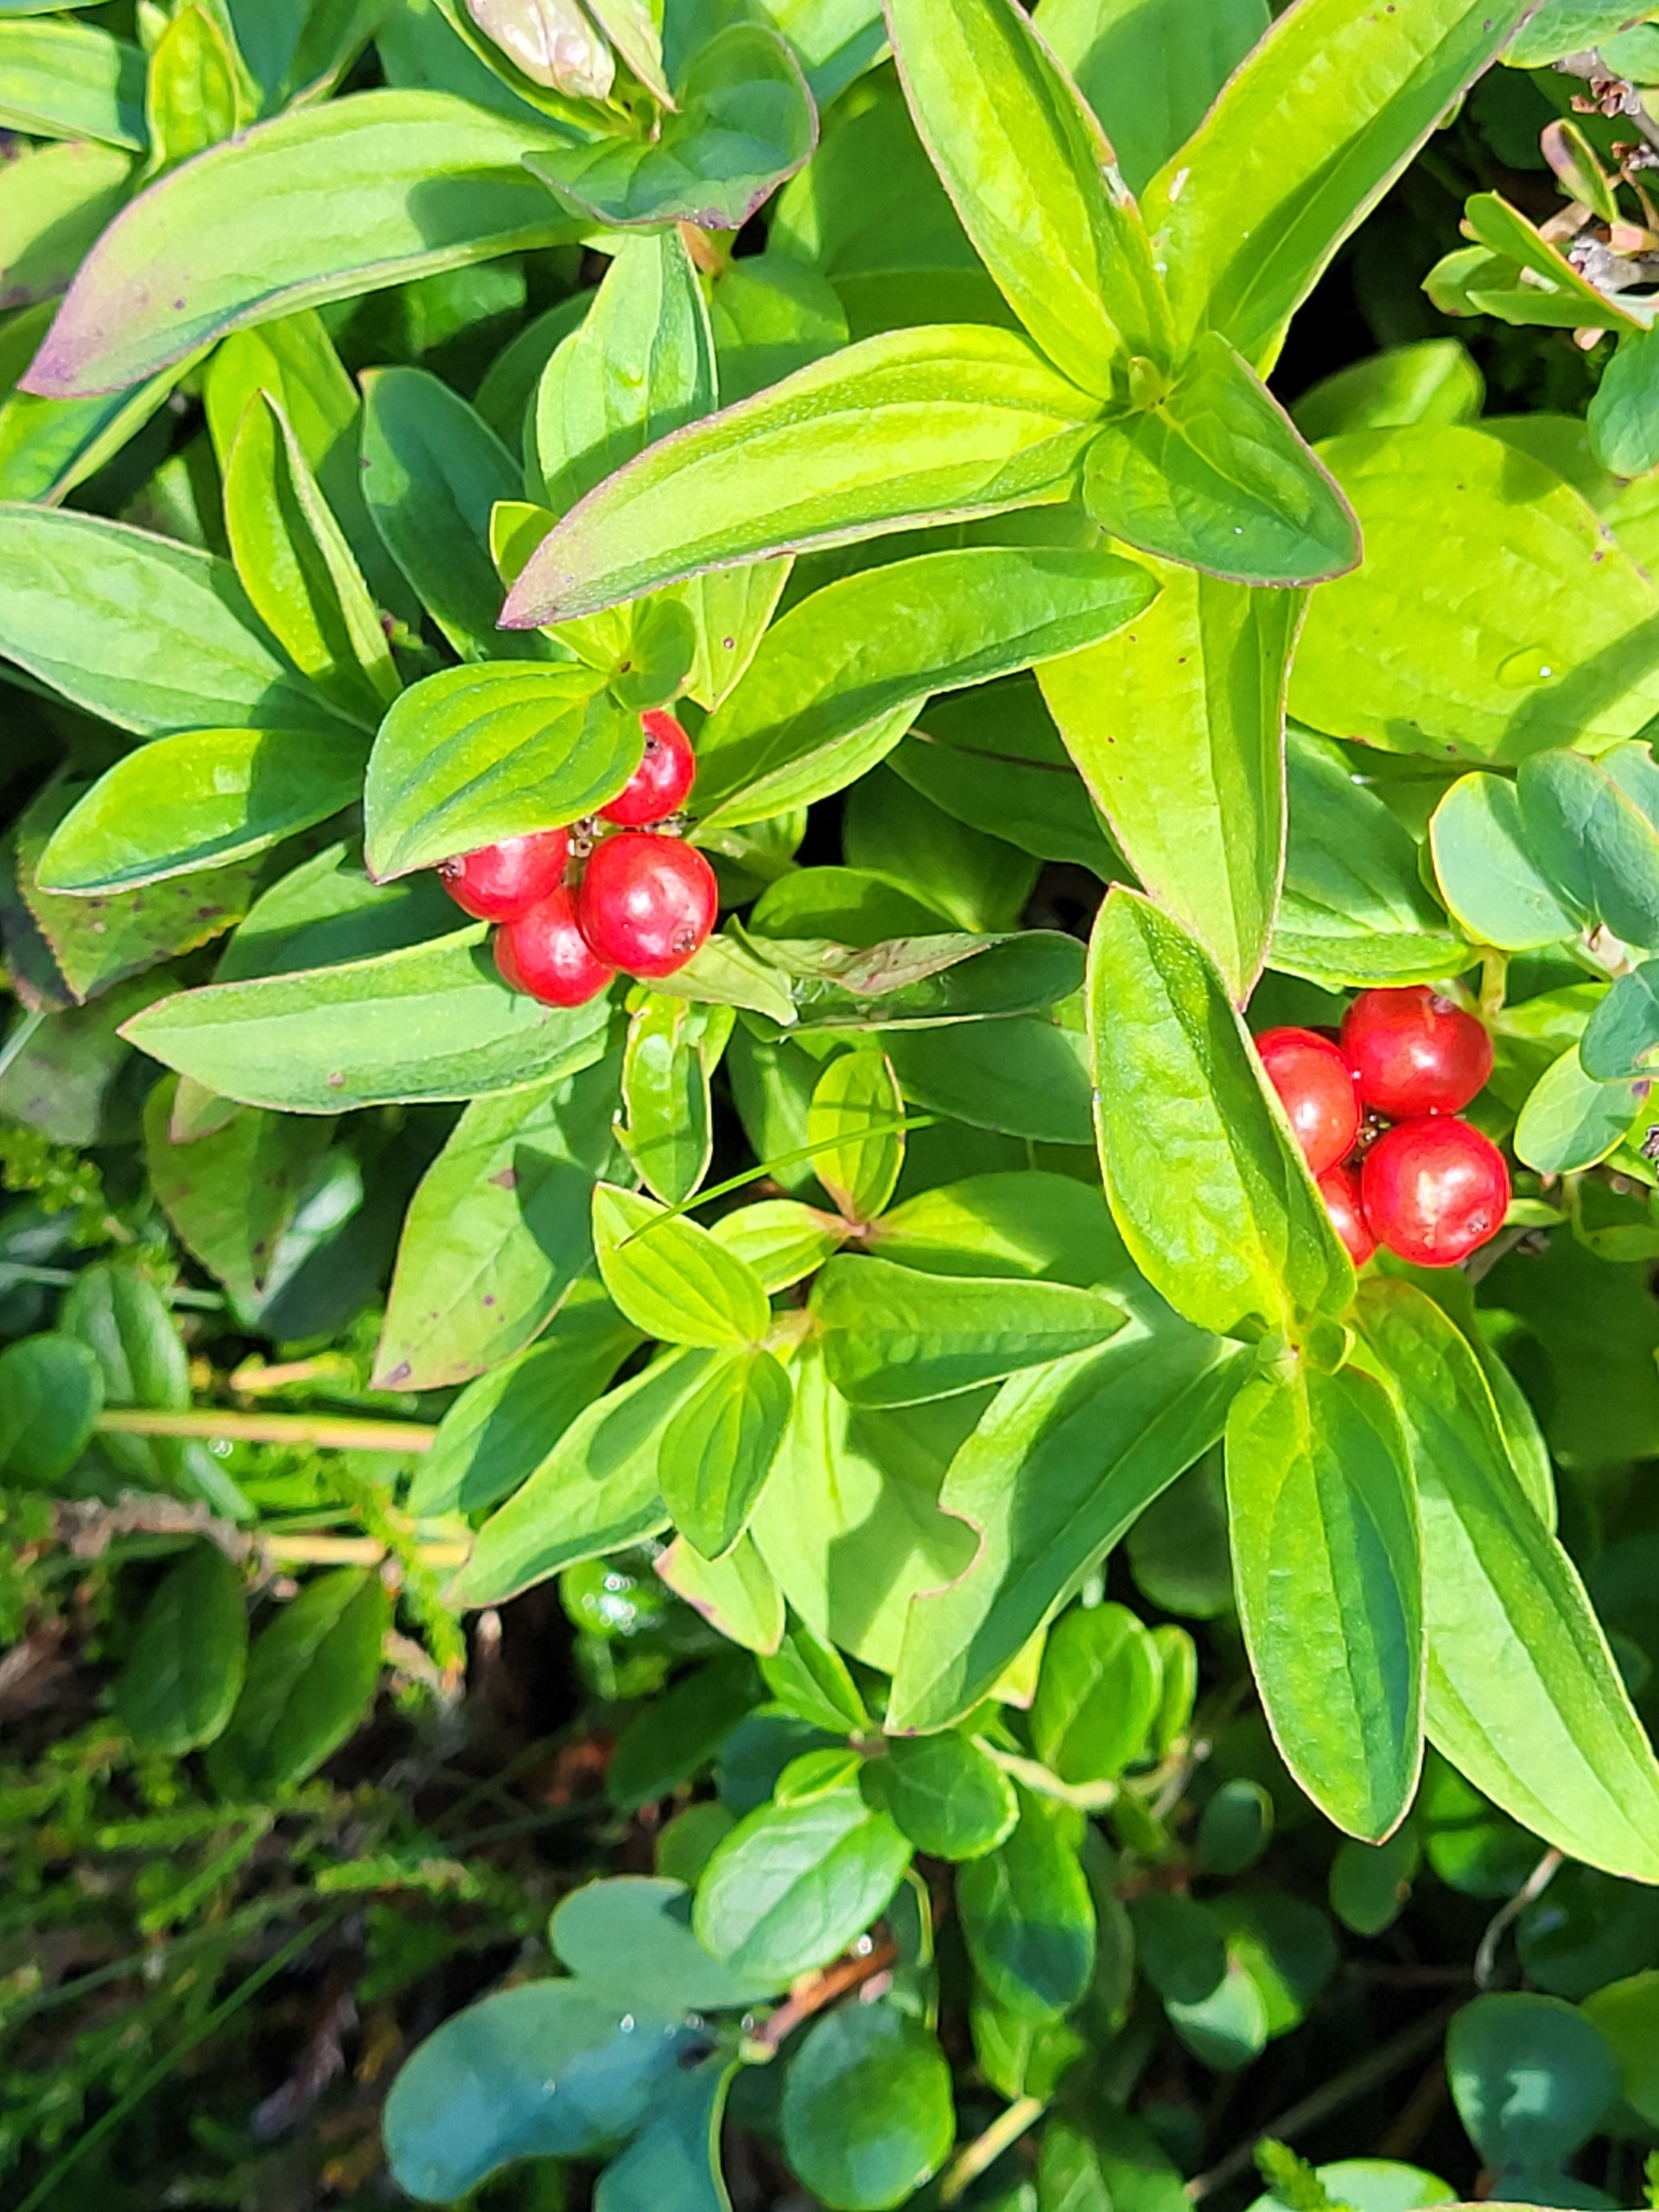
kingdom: Plantae
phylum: Tracheophyta
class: Magnoliopsida
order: Cornales
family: Cornaceae
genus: Cornus
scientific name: Cornus suecica
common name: Hønsebær
